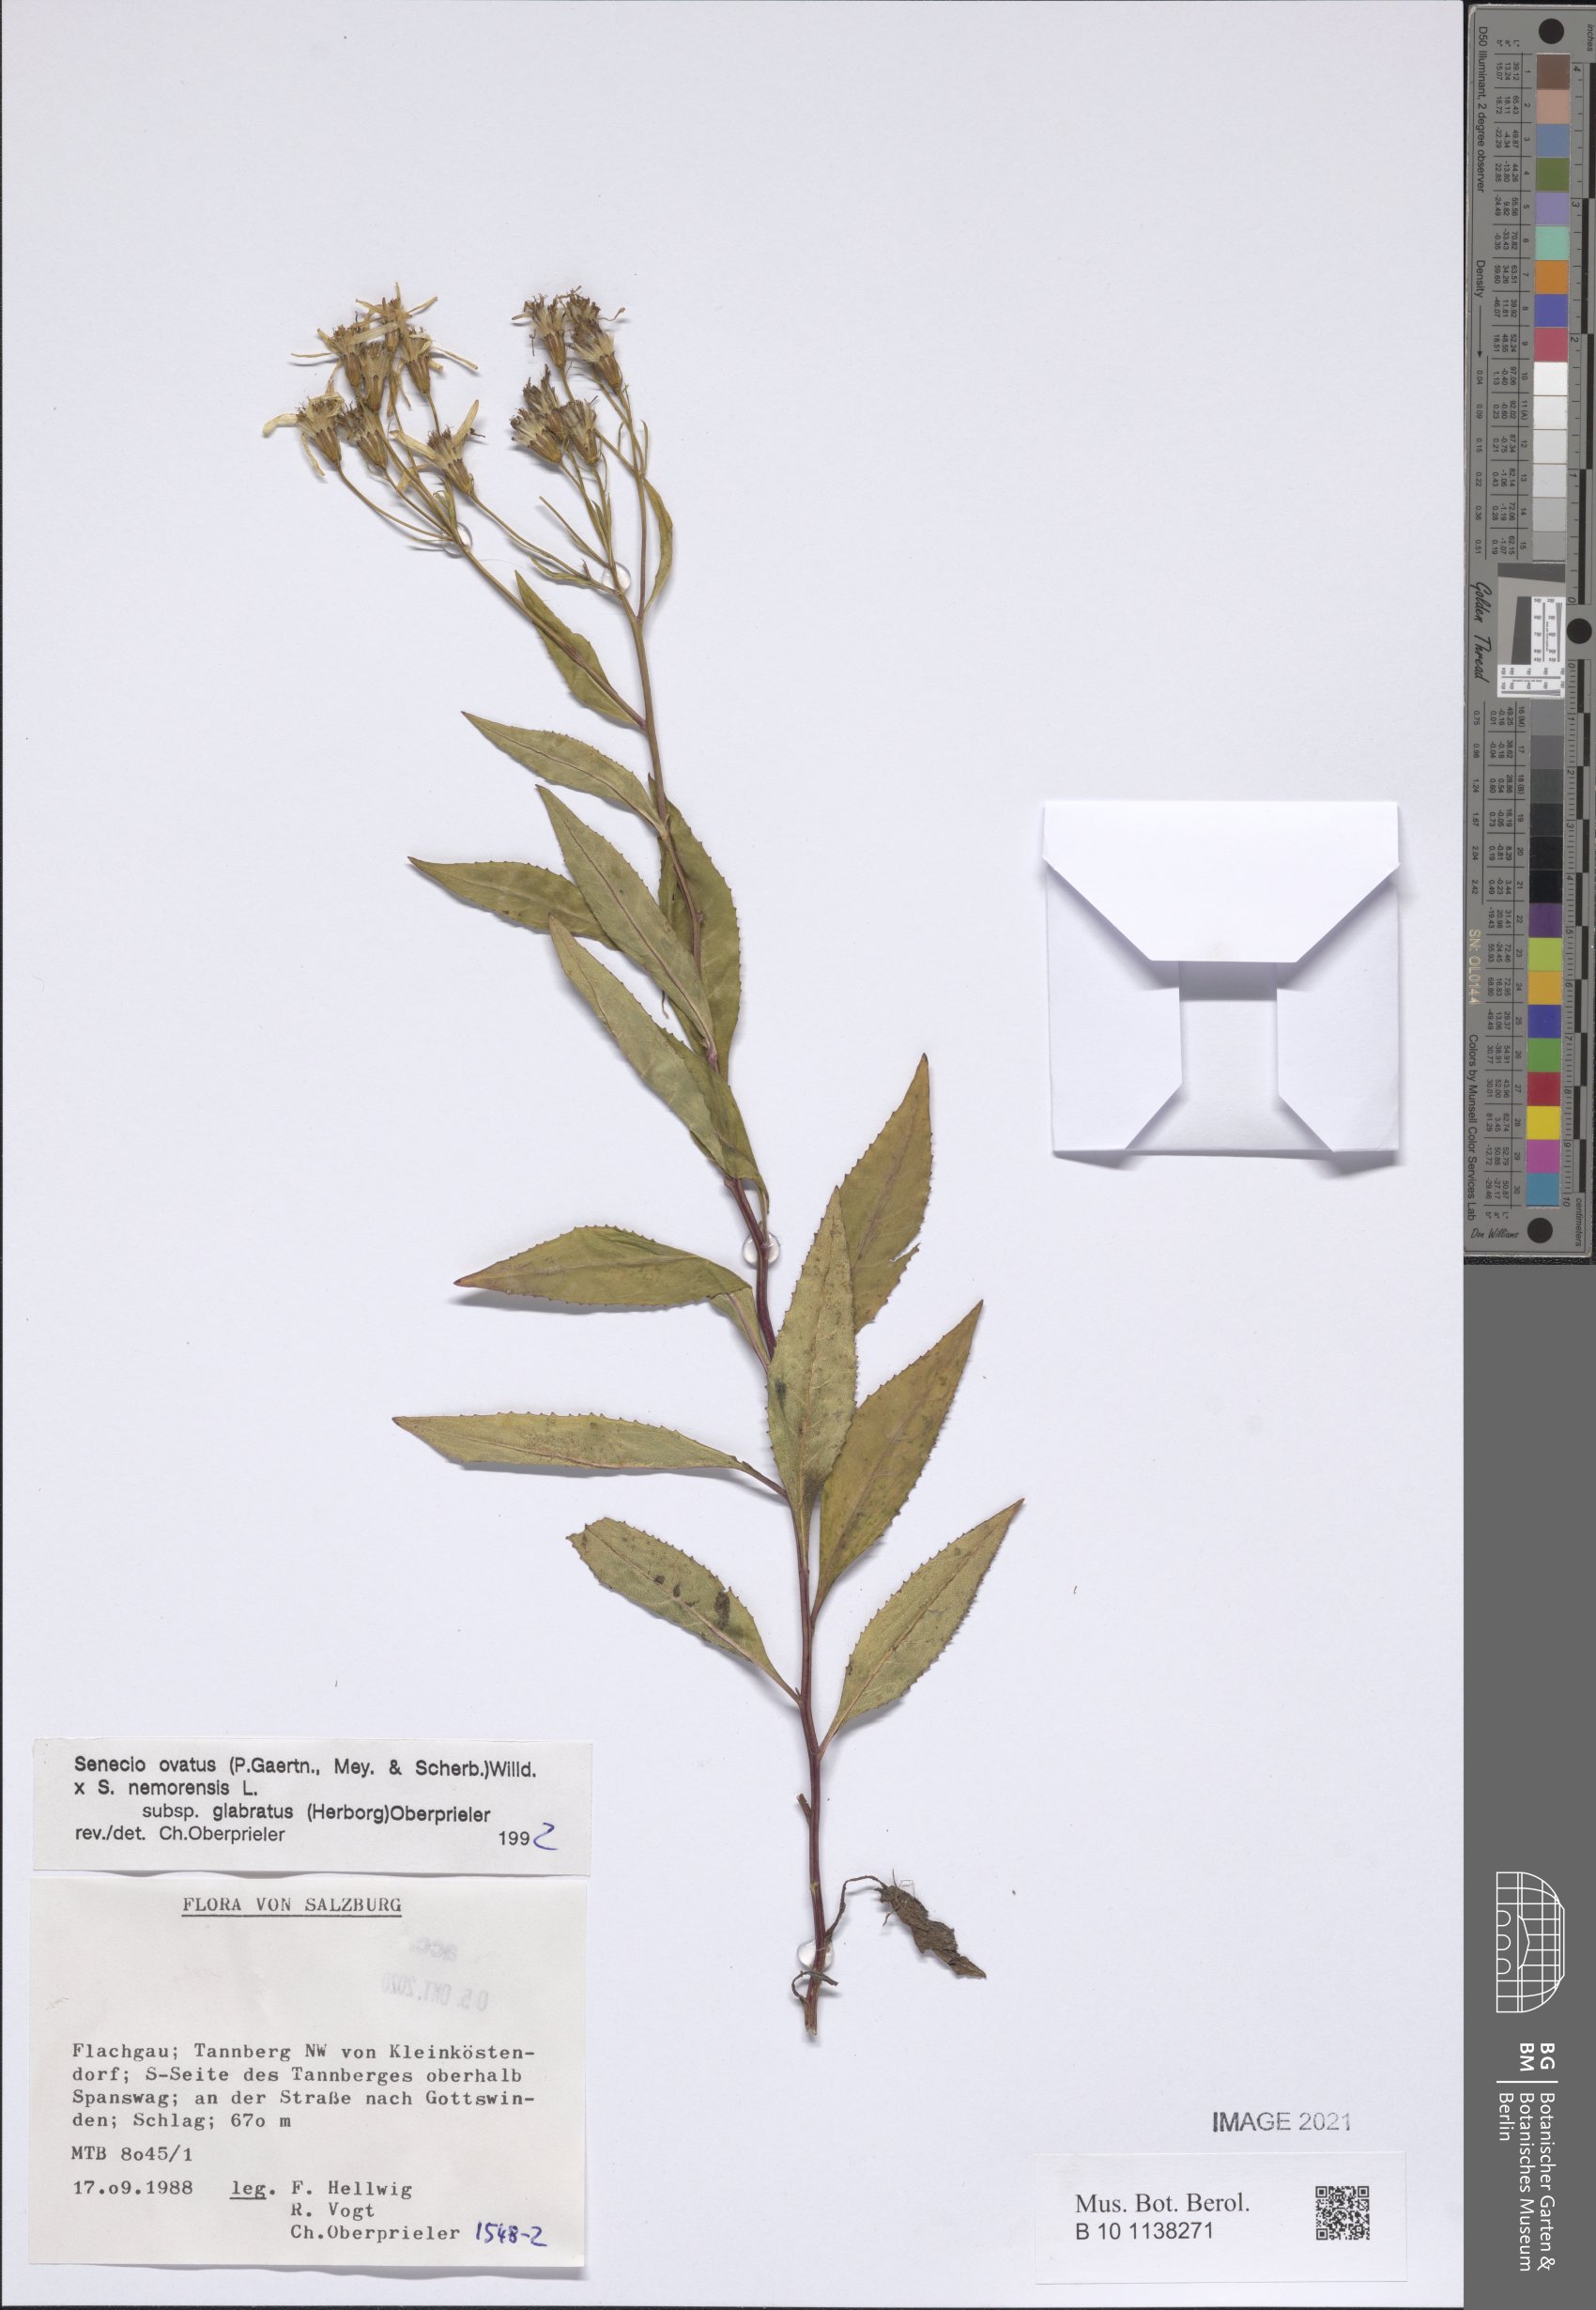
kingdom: Plantae
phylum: Tracheophyta
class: Magnoliopsida
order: Asterales
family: Asteraceae
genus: Senecio
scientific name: Senecio ovatus
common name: Wood ragwort
